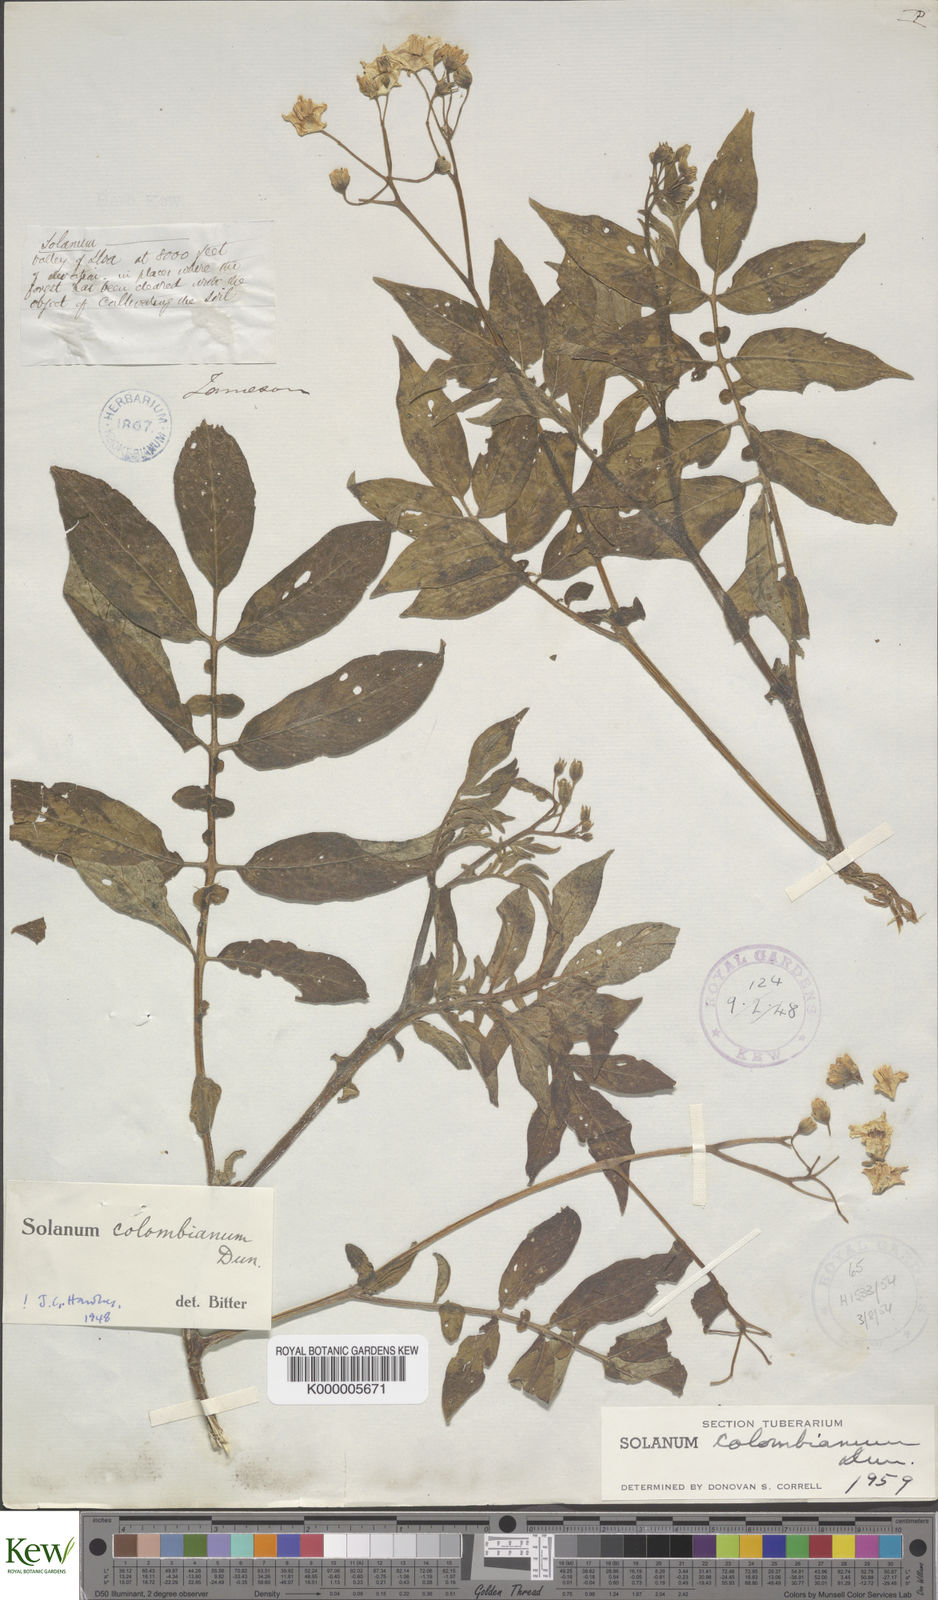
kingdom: Plantae
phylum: Tracheophyta
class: Magnoliopsida
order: Solanales
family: Solanaceae
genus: Solanum
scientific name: Solanum colombianum
